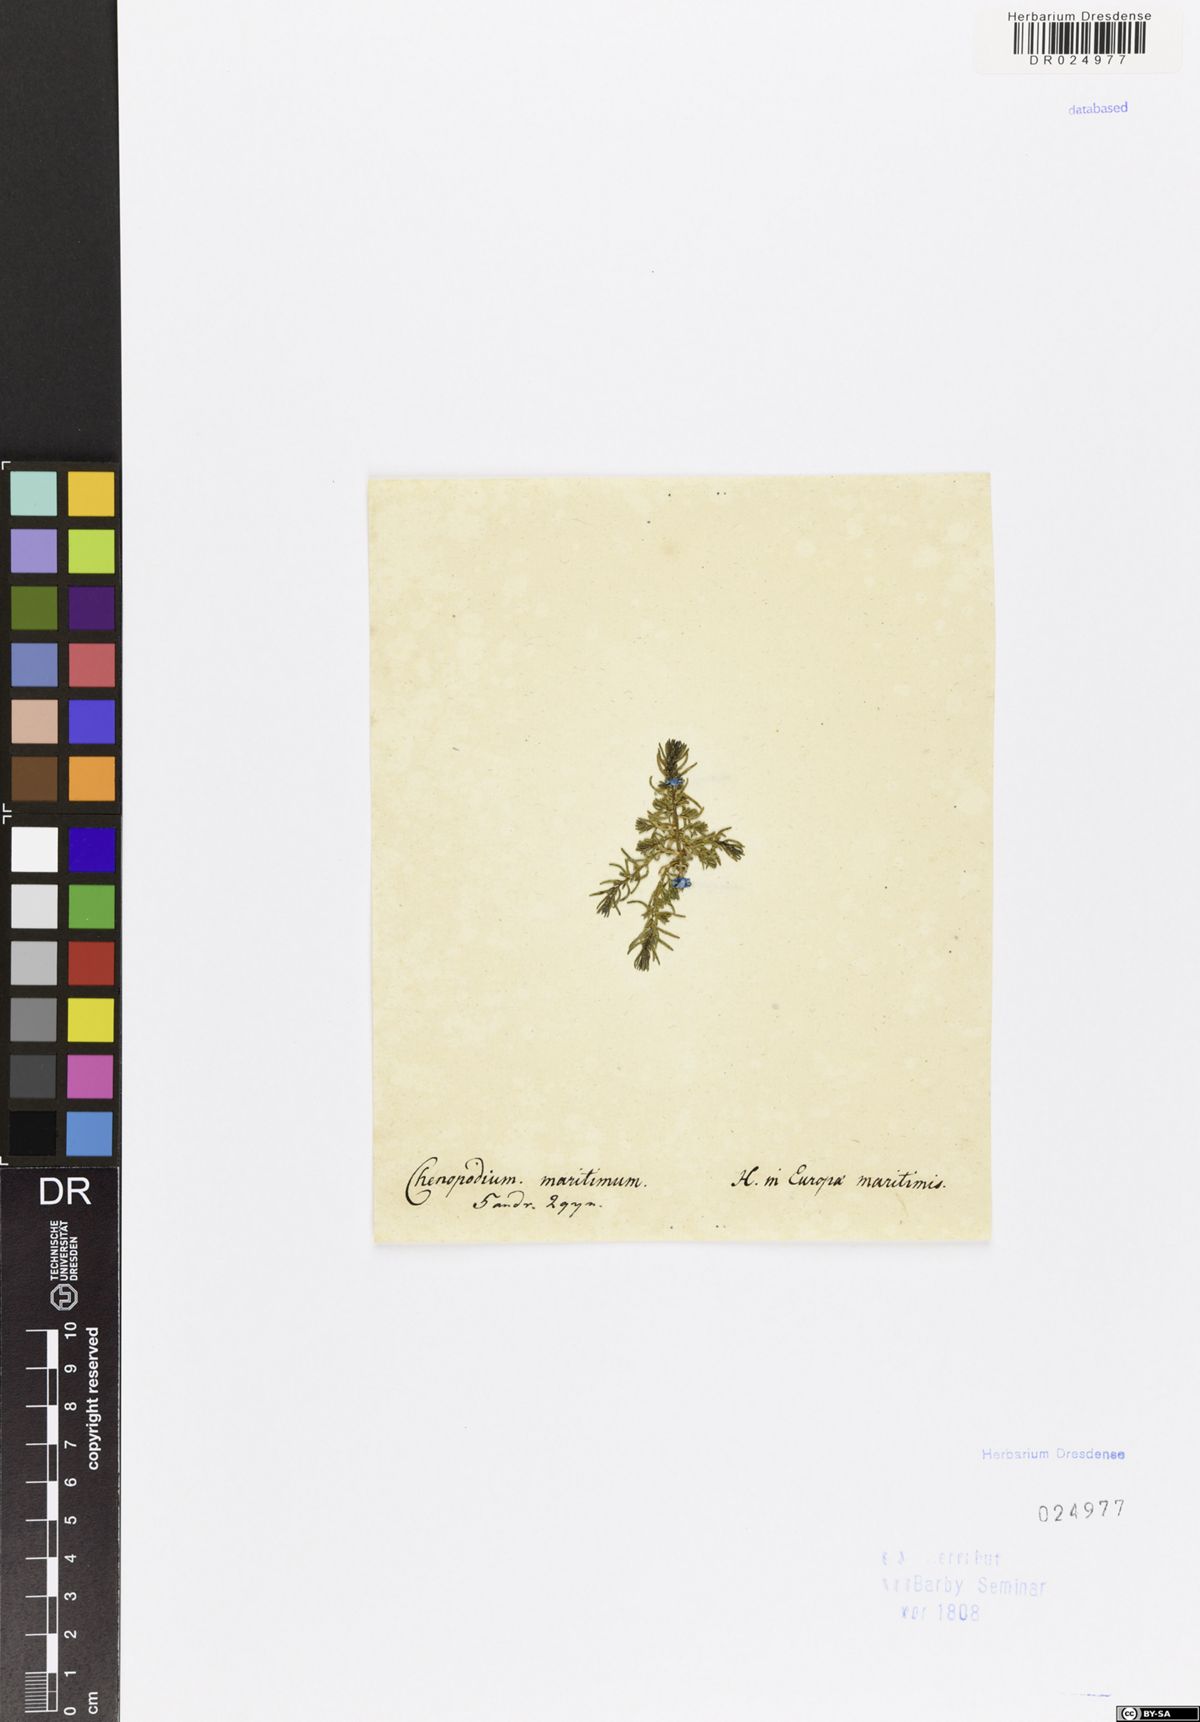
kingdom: Plantae
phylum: Tracheophyta
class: Magnoliopsida
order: Caryophyllales
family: Amaranthaceae
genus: Suaeda
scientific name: Suaeda maritima
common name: Annual sea-blite
